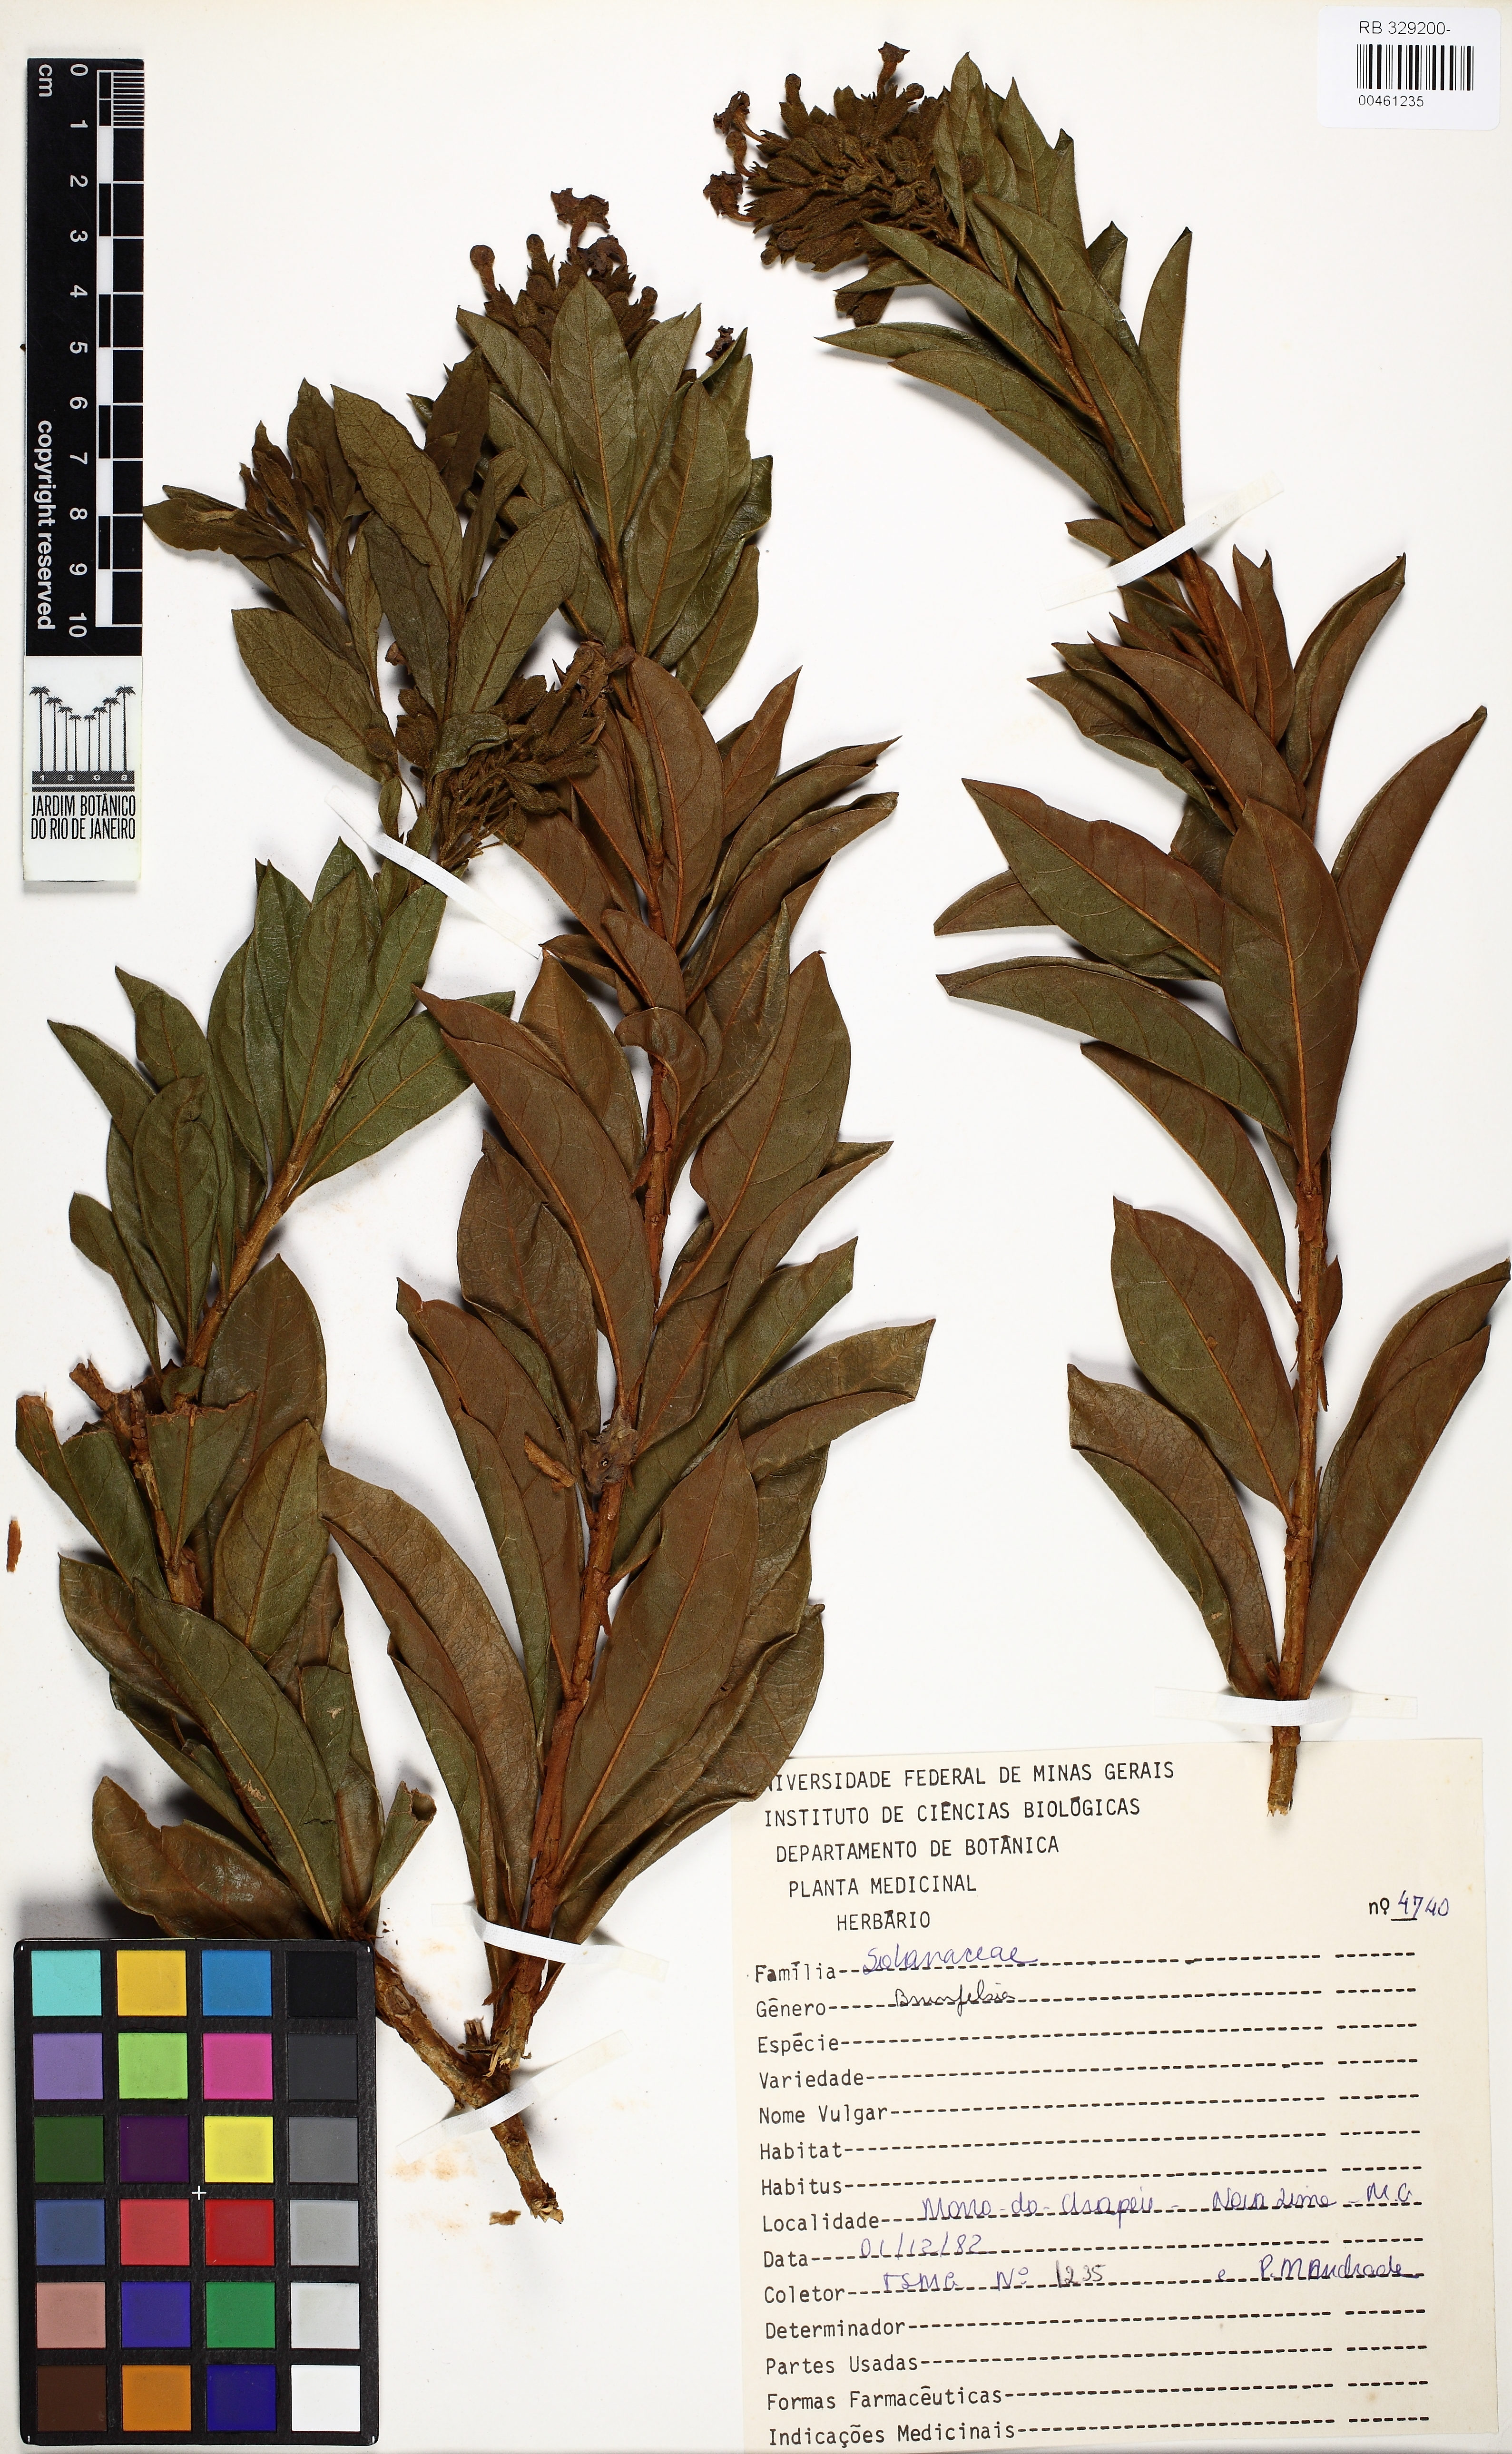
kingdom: Plantae
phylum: Tracheophyta
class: Magnoliopsida
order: Solanales
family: Solanaceae
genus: Brunfelsia
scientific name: Brunfelsia brasiliensis
